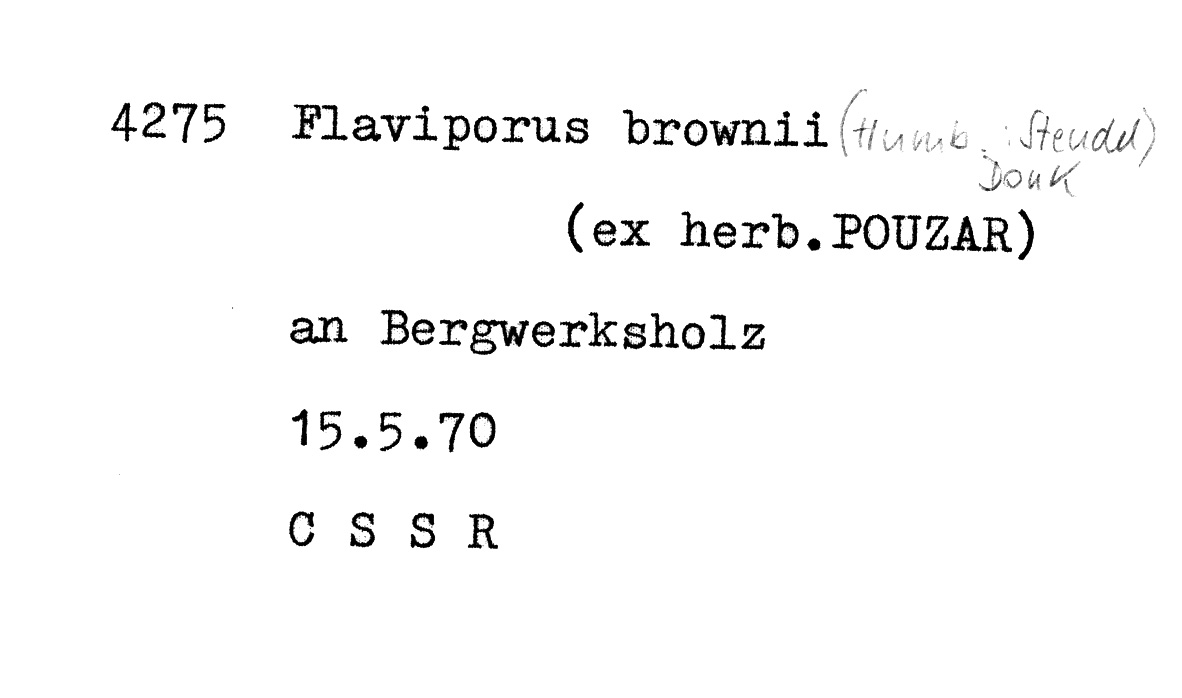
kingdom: Fungi
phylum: Basidiomycota
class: Agaricomycetes
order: Polyporales
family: Steccherinaceae
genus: Flaviporus
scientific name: Flaviporus brownii
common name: Yellowpored bracket
